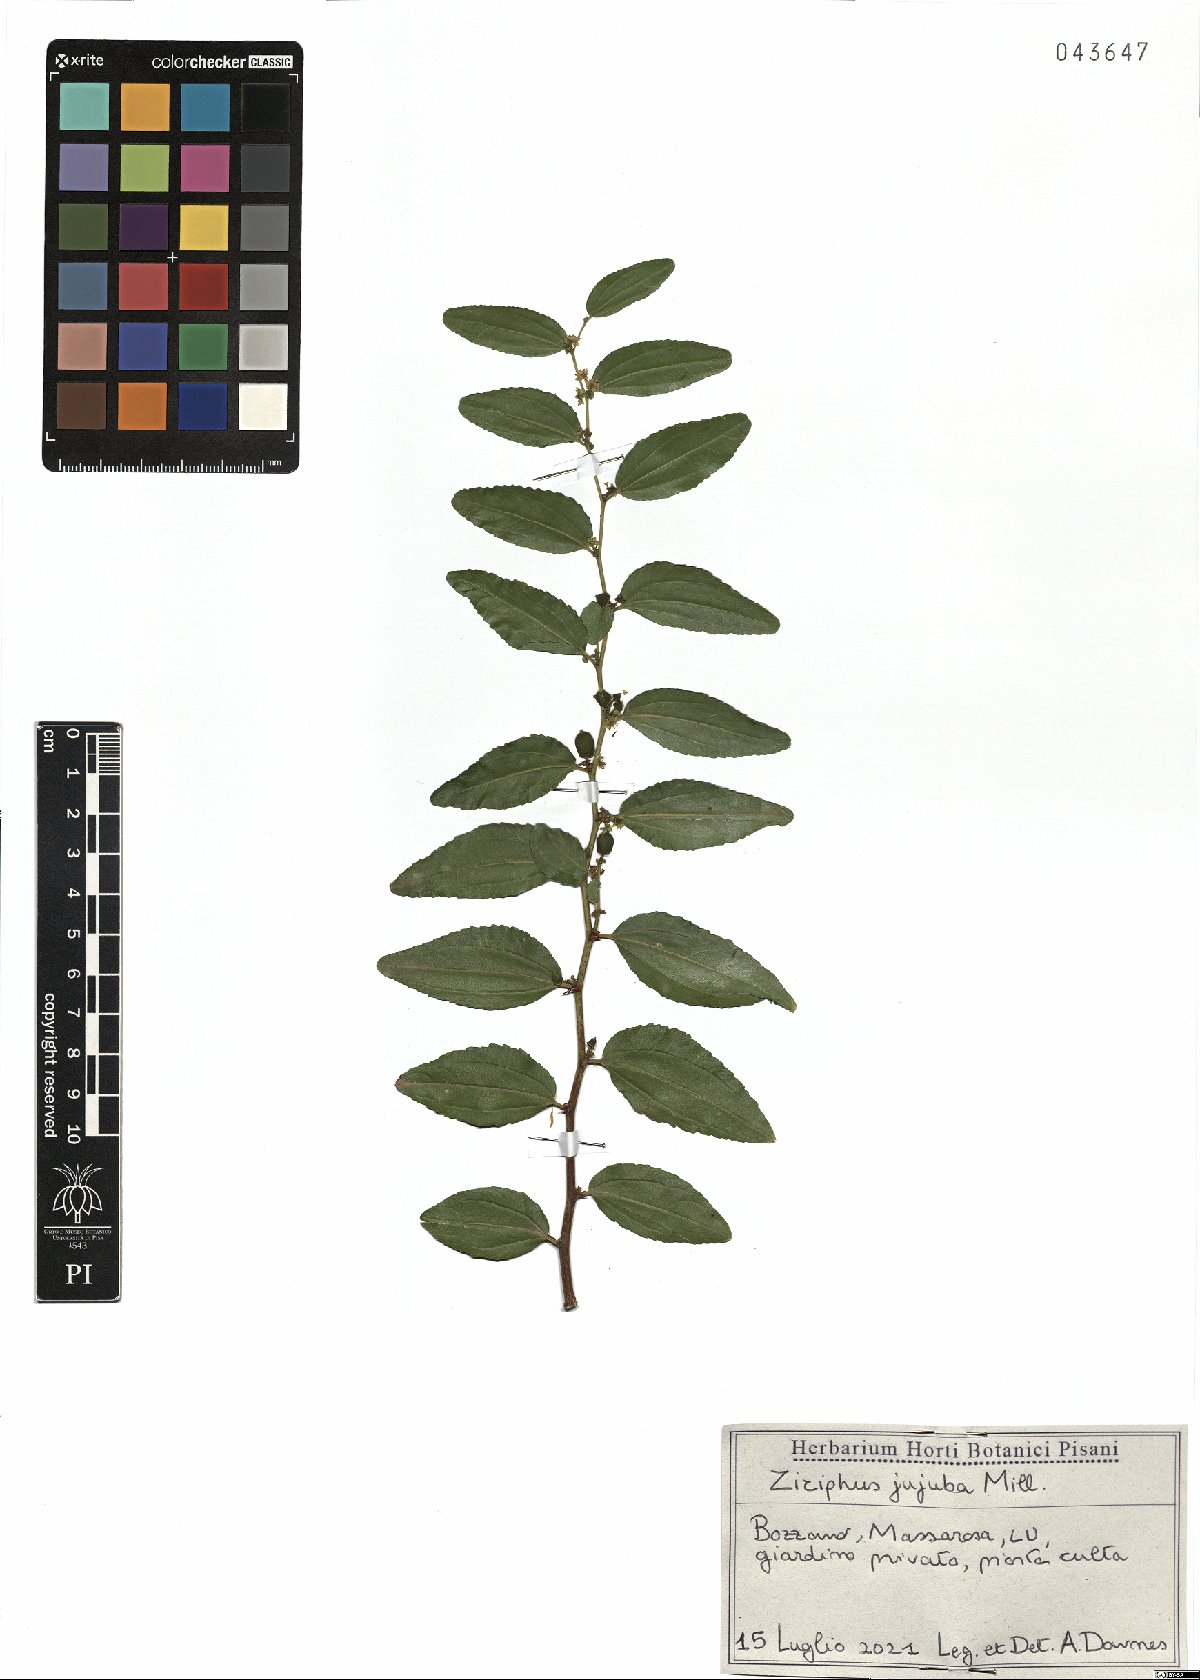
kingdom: Plantae
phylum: Tracheophyta
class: Magnoliopsida
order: Rosales
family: Rhamnaceae
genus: Ziziphus
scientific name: Ziziphus jujuba
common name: Jujube red date
